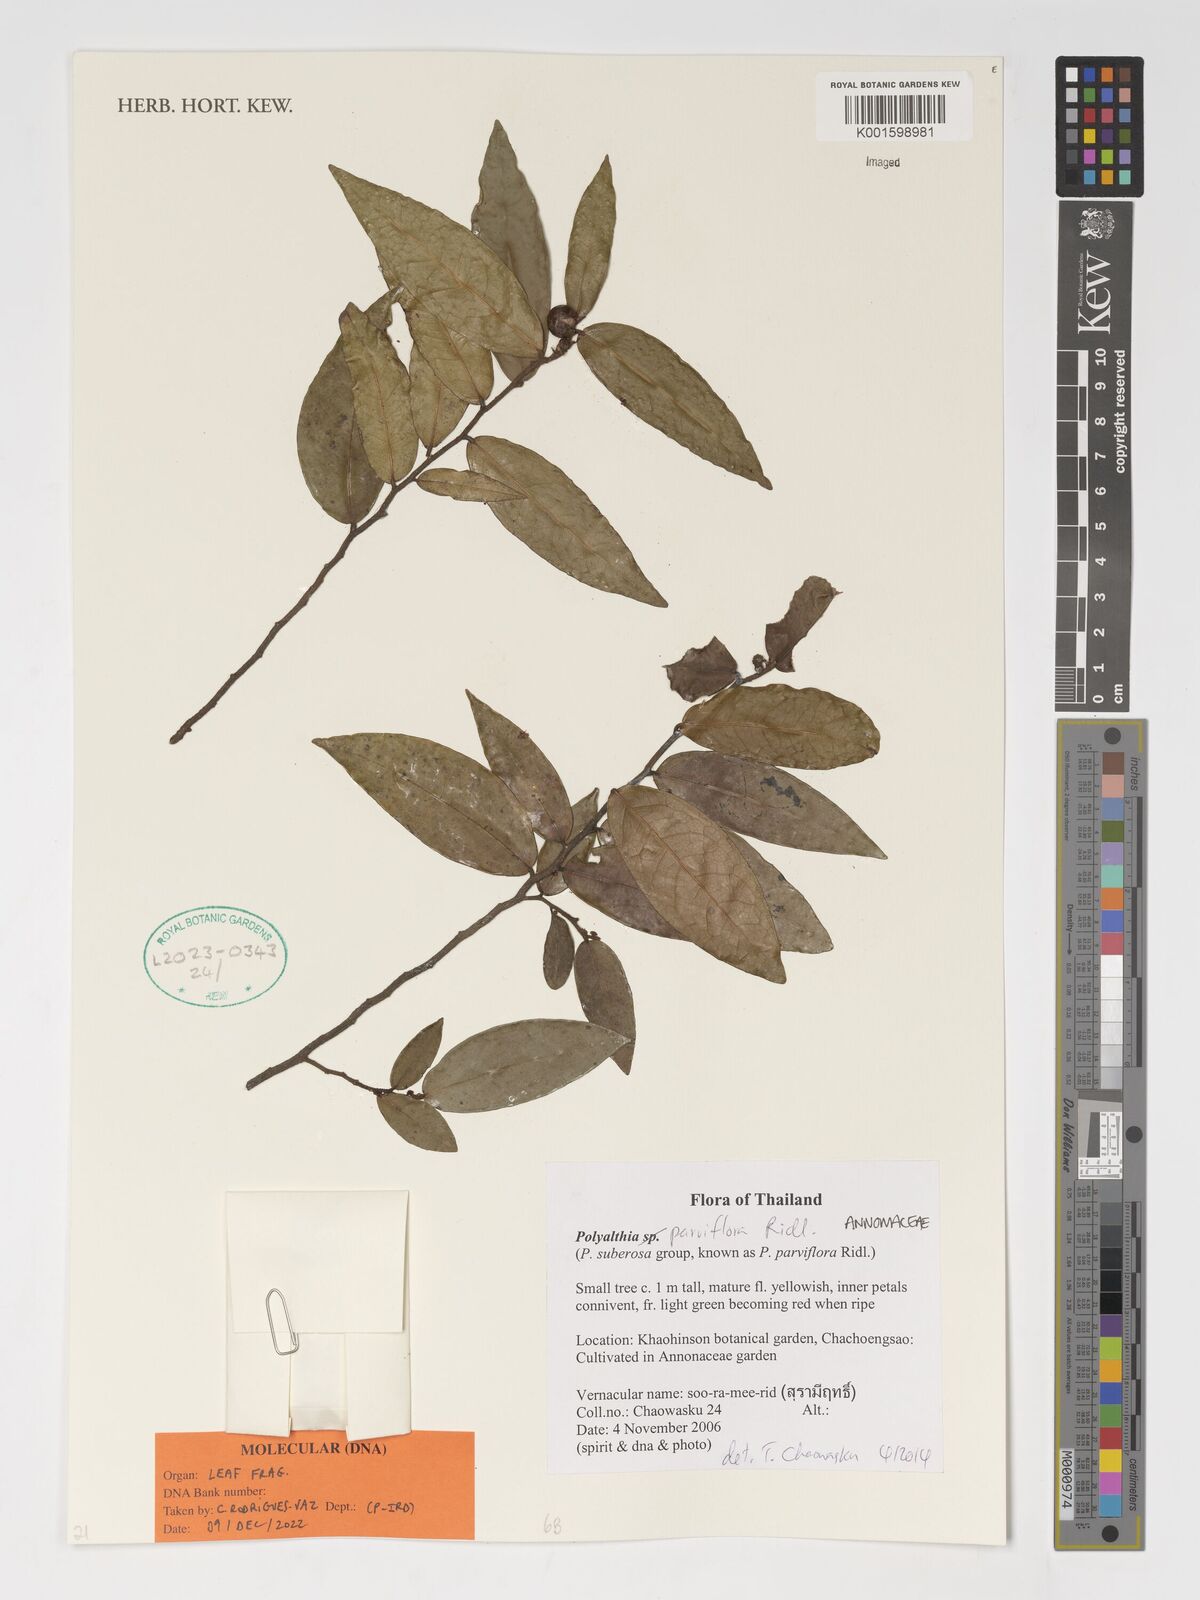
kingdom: Plantae
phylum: Tracheophyta
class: Magnoliopsida
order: Magnoliales
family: Annonaceae
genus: Polyalthia
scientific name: Polyalthia parviflora
